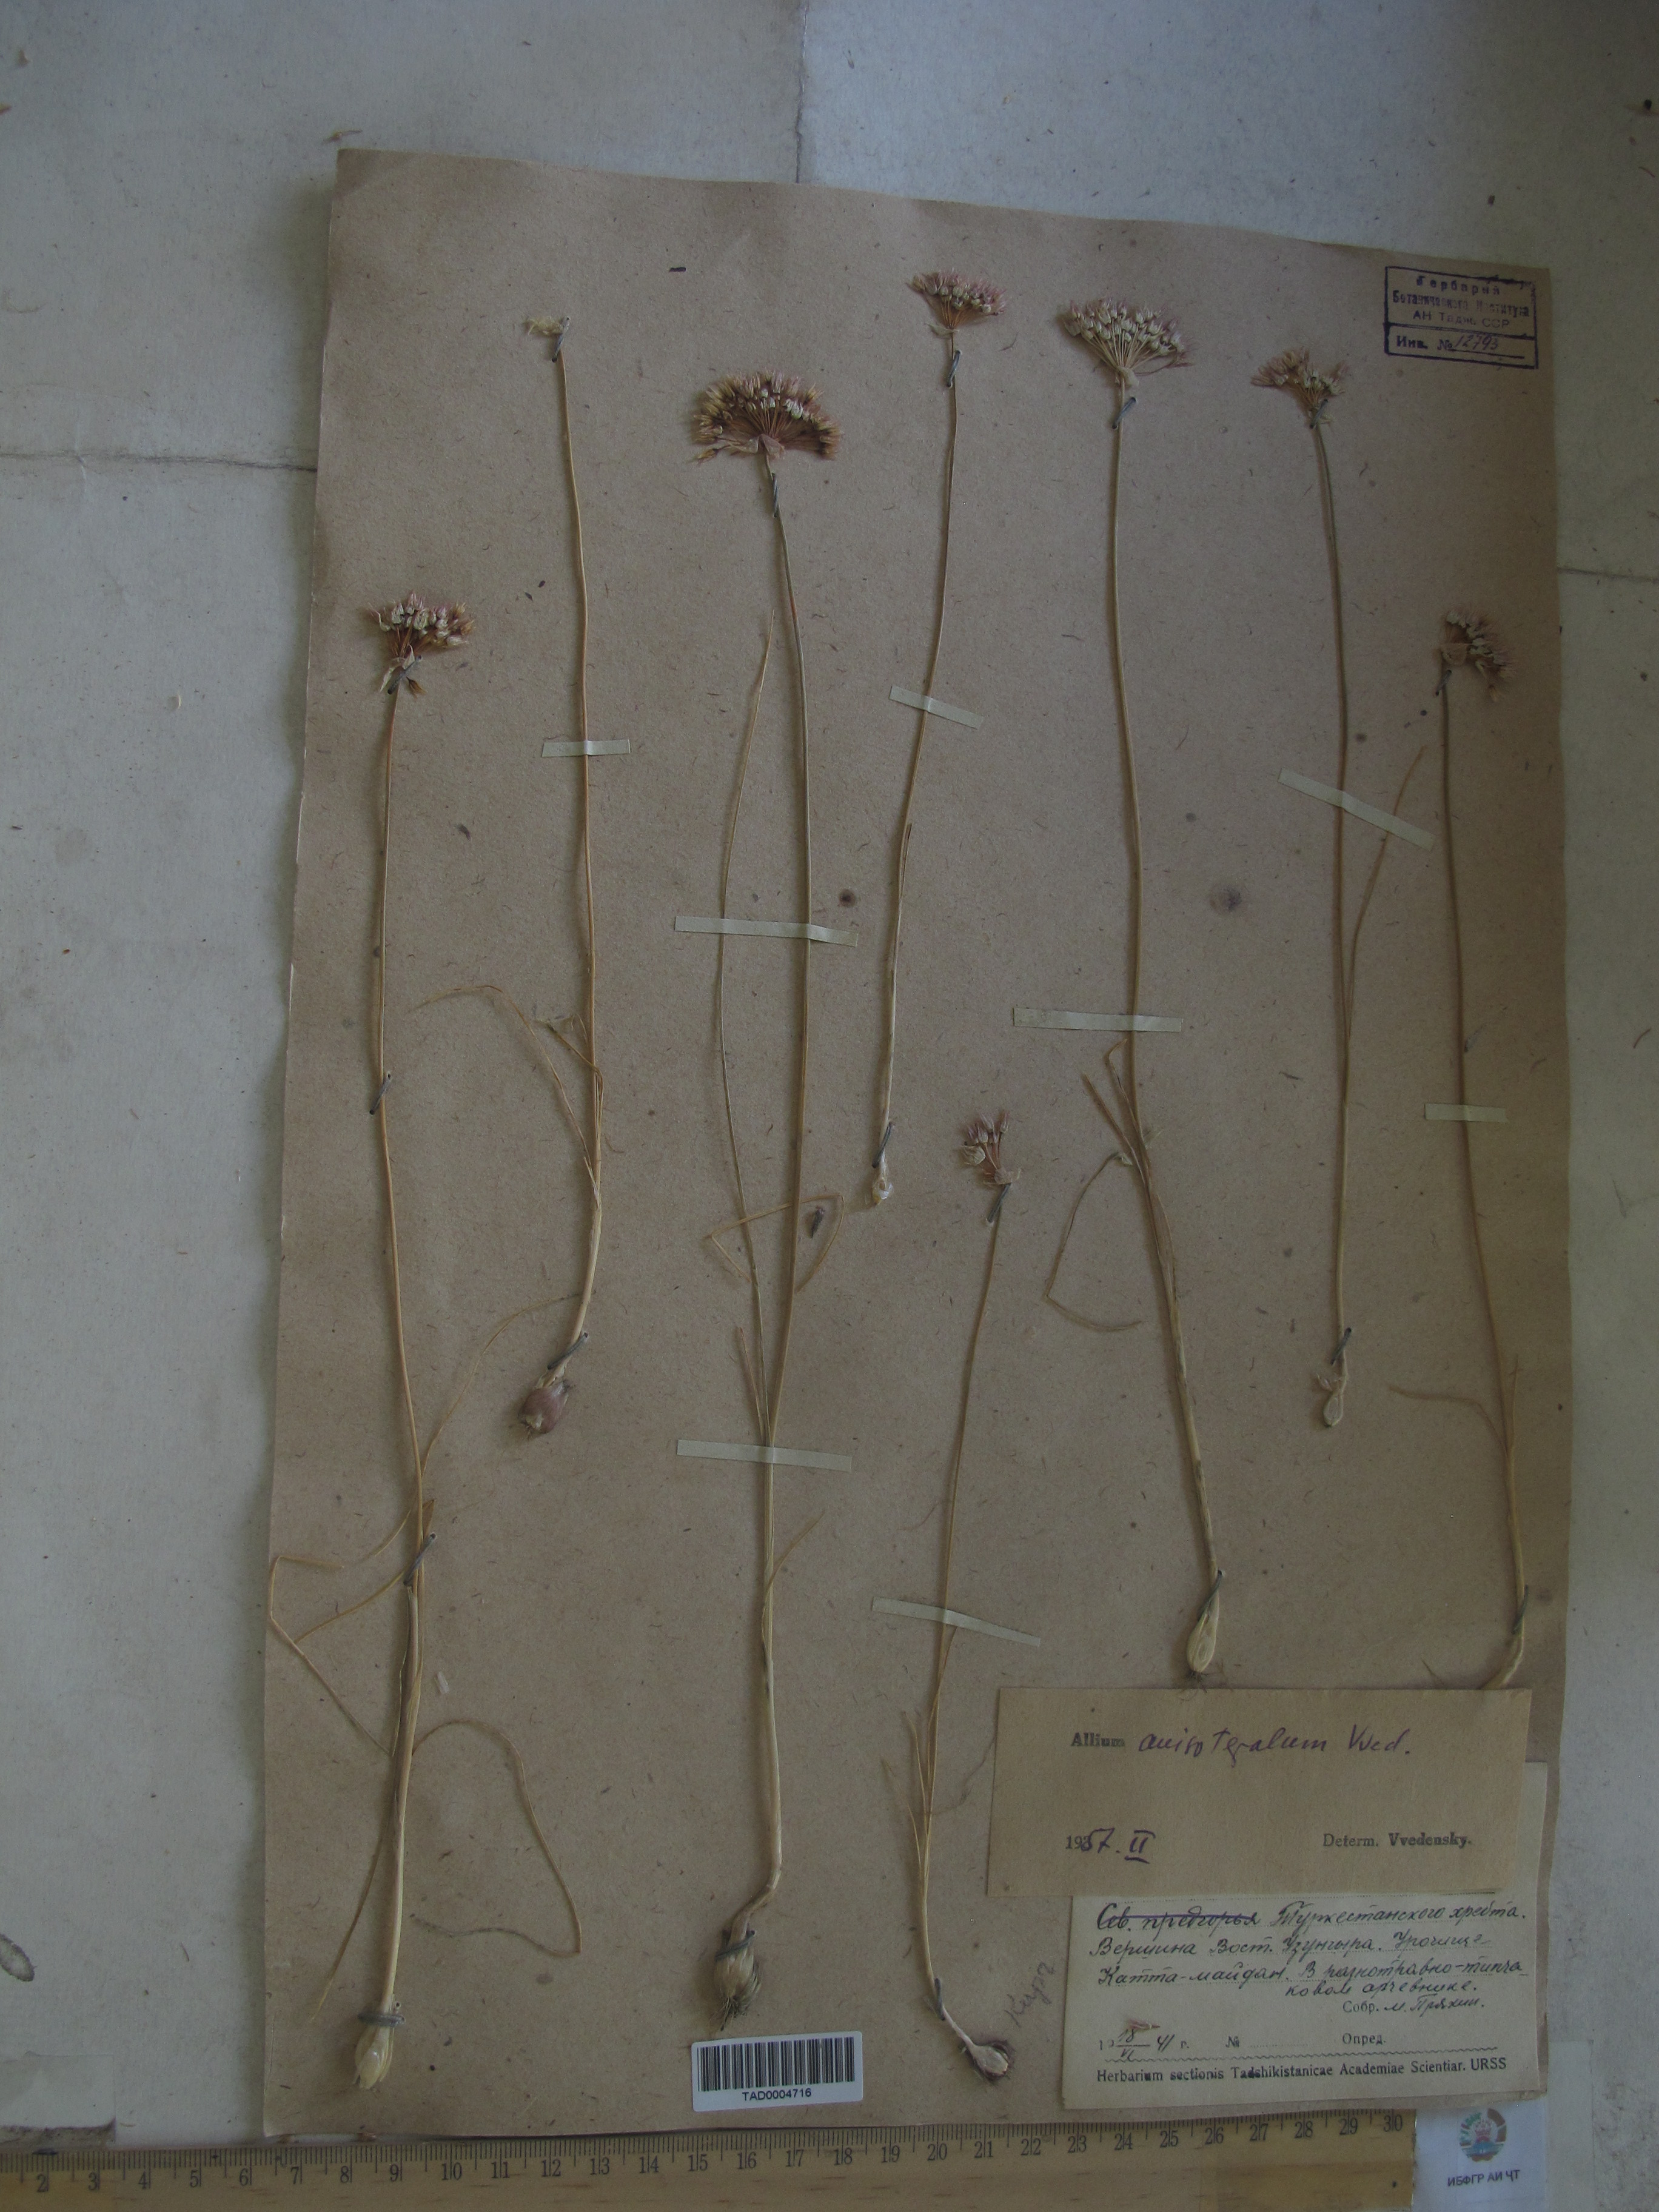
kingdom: Plantae
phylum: Tracheophyta
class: Liliopsida
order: Asparagales
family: Amaryllidaceae
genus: Allium
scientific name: Allium anisotepalum
